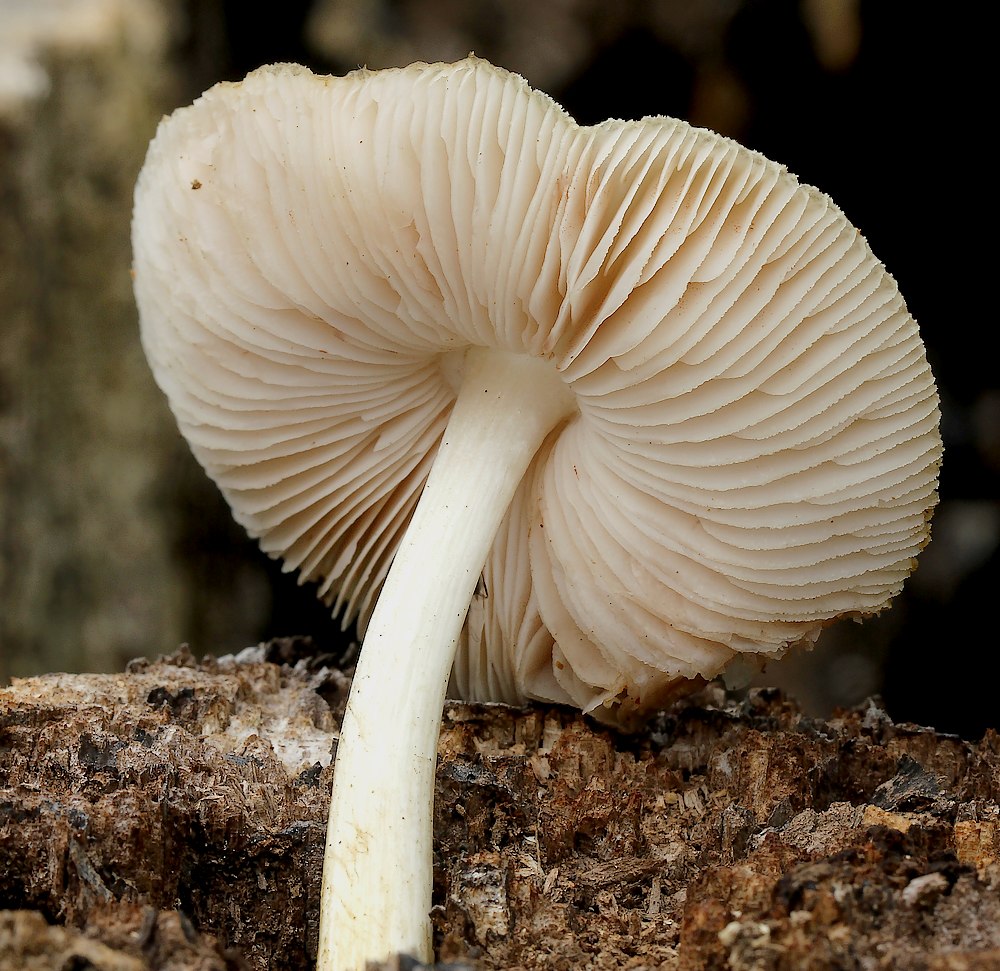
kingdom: Fungi
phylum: Basidiomycota
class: Agaricomycetes
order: Agaricales
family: Pluteaceae
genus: Pluteus
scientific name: Pluteus punctatus
